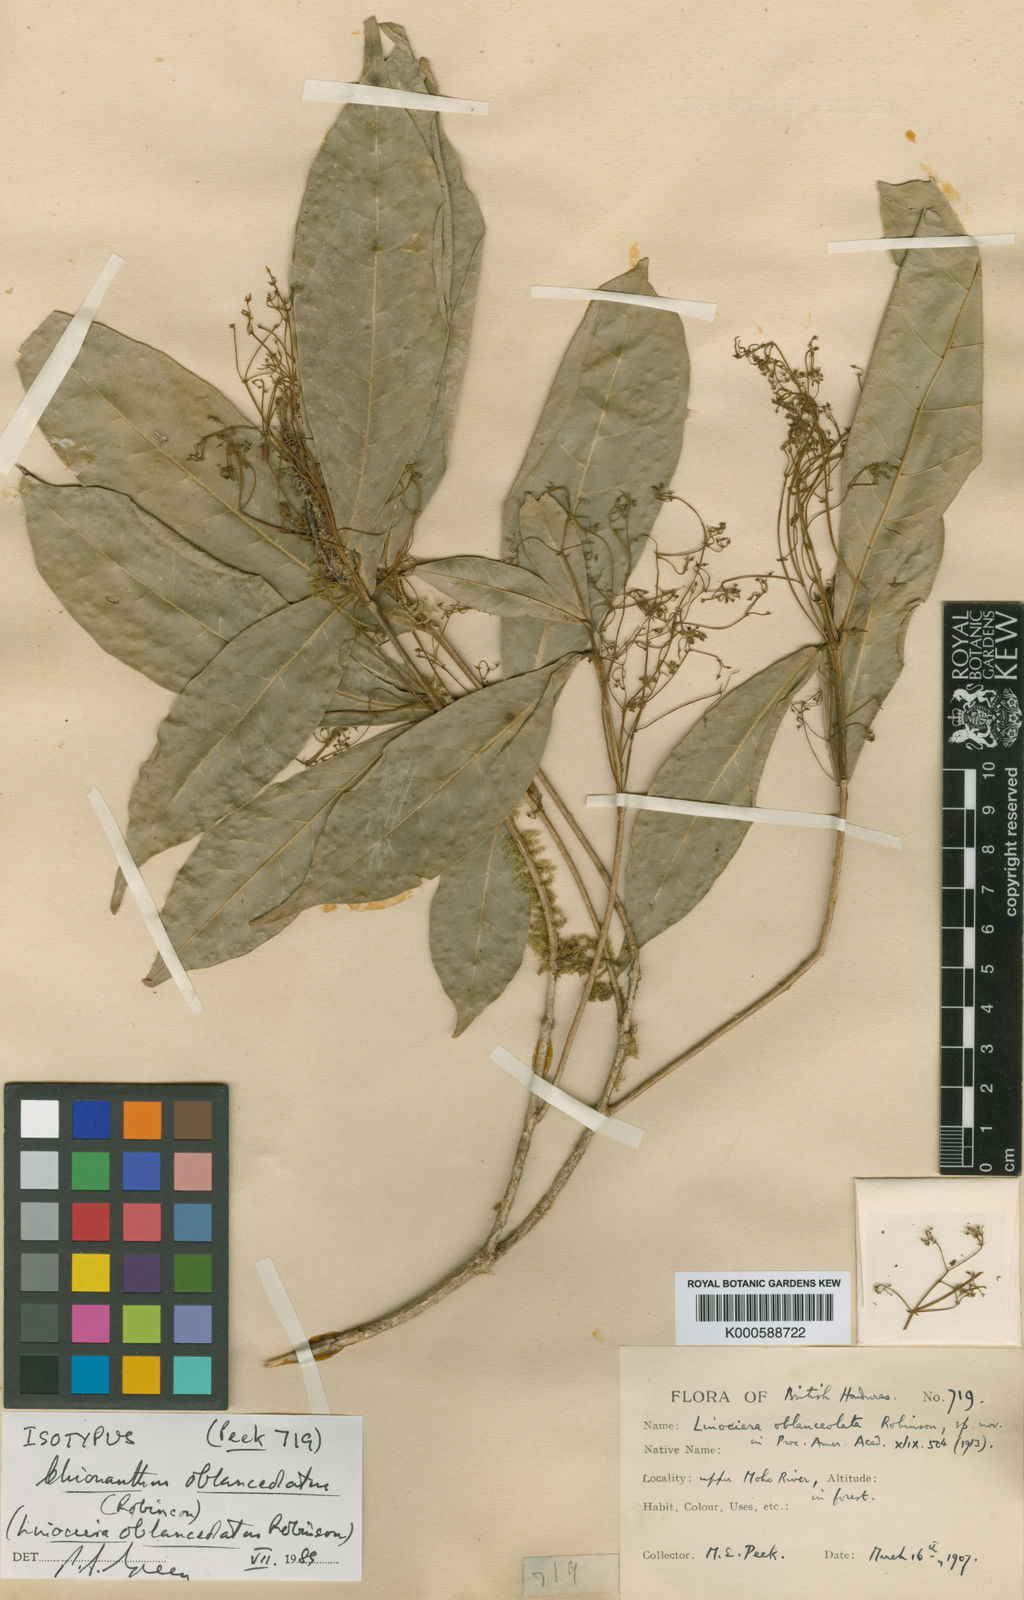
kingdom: Plantae
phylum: Tracheophyta
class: Magnoliopsida
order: Lamiales
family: Oleaceae
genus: Chionanthus
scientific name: Chionanthus oblanceolatus
